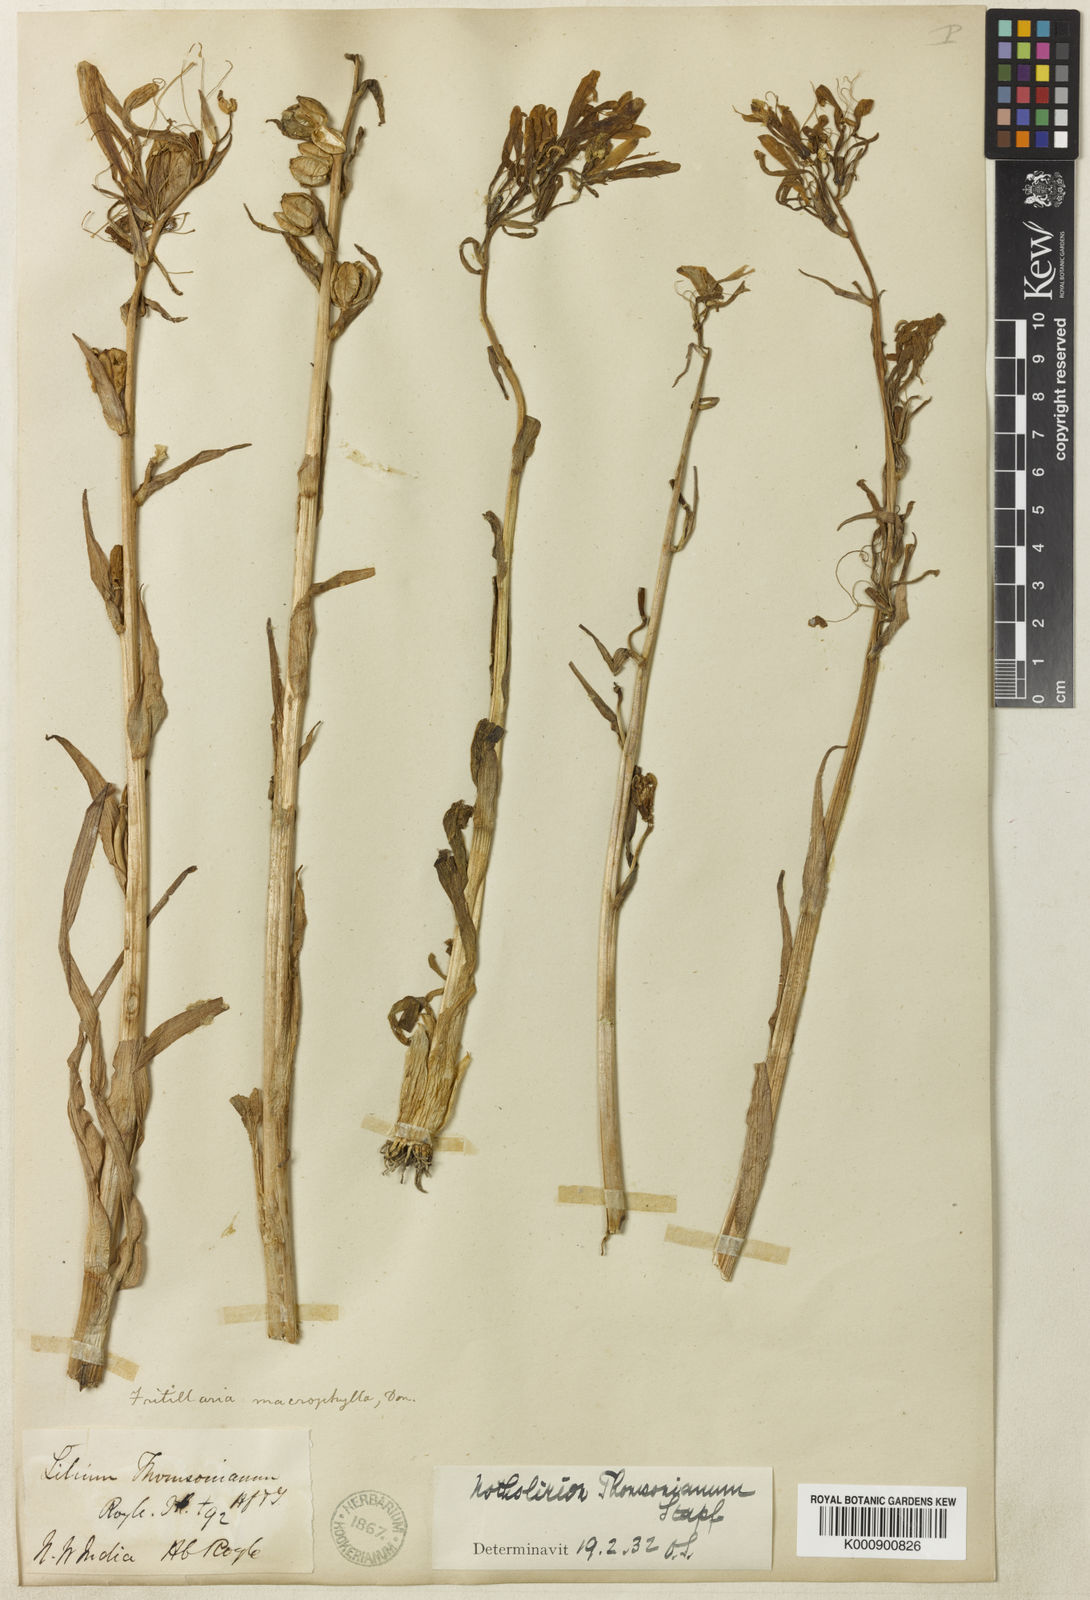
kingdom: Plantae
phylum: Tracheophyta
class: Liliopsida
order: Liliales
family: Liliaceae
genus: Notholirion
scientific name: Notholirion thomsonianum
